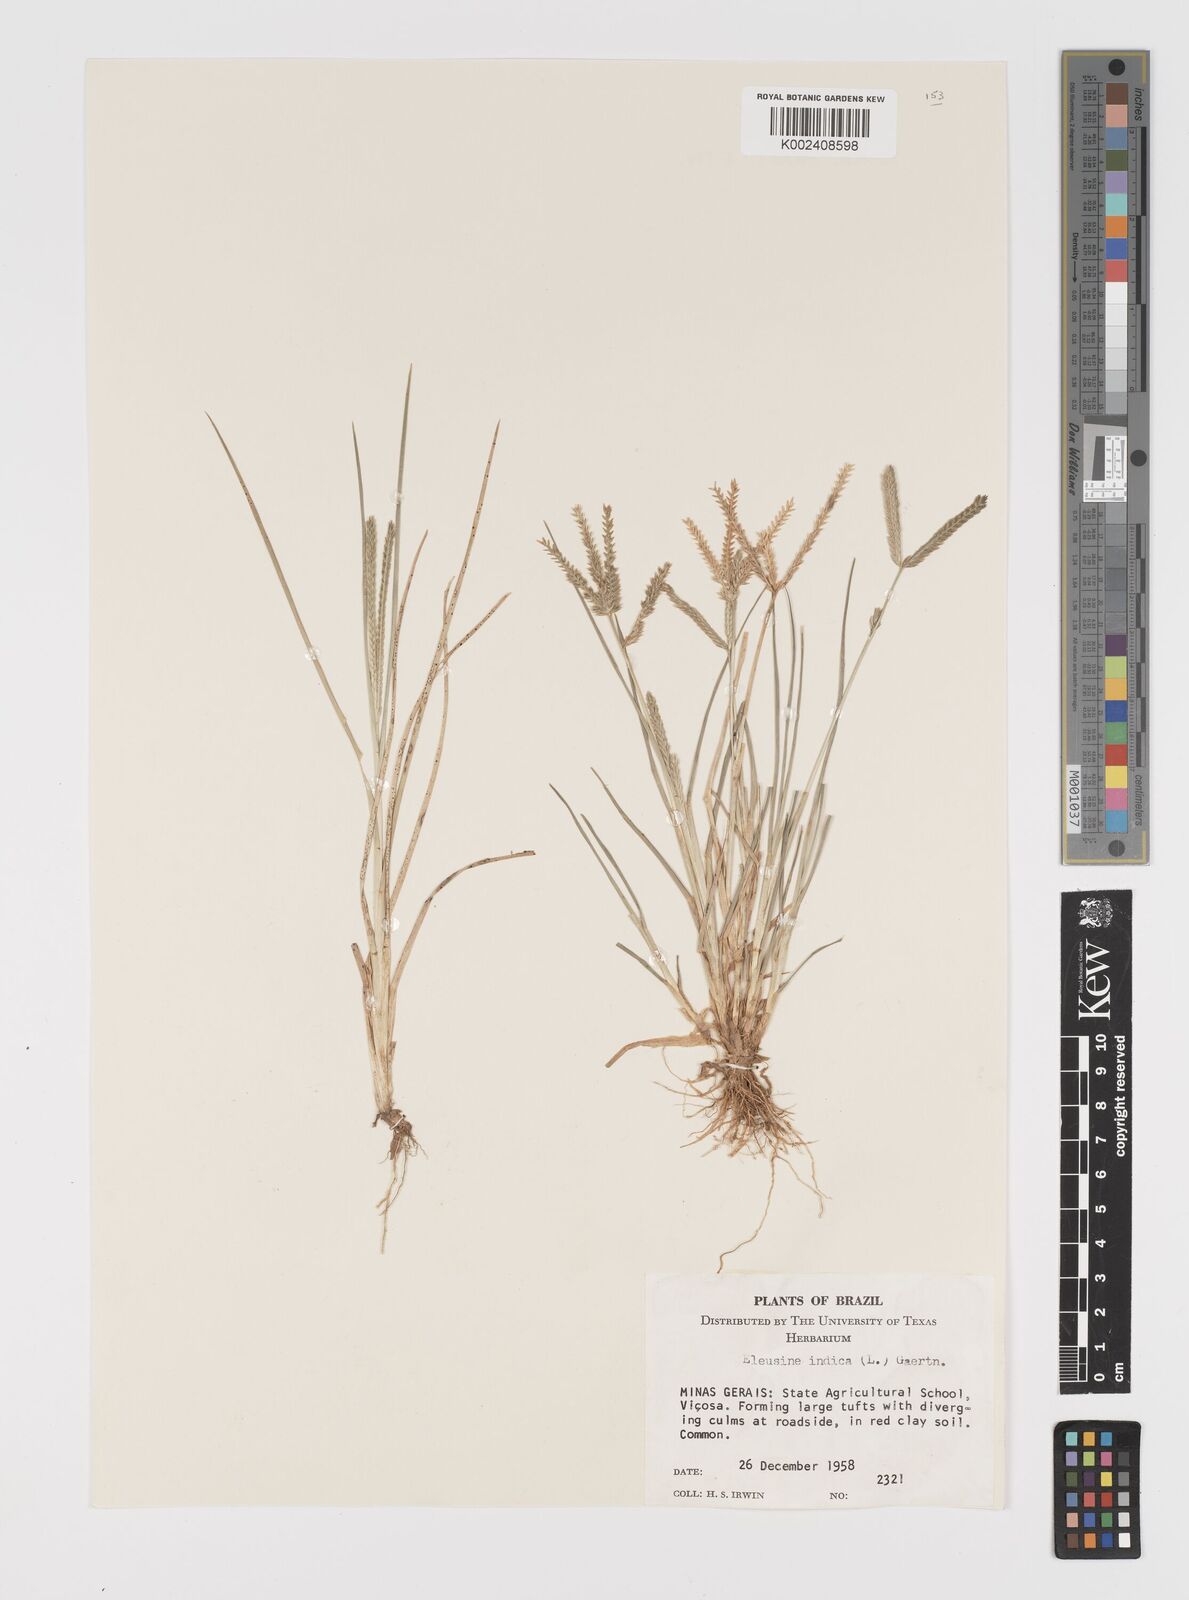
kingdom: Plantae
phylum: Tracheophyta
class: Liliopsida
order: Poales
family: Poaceae
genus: Eleusine
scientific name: Eleusine indica
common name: Yard-grass
